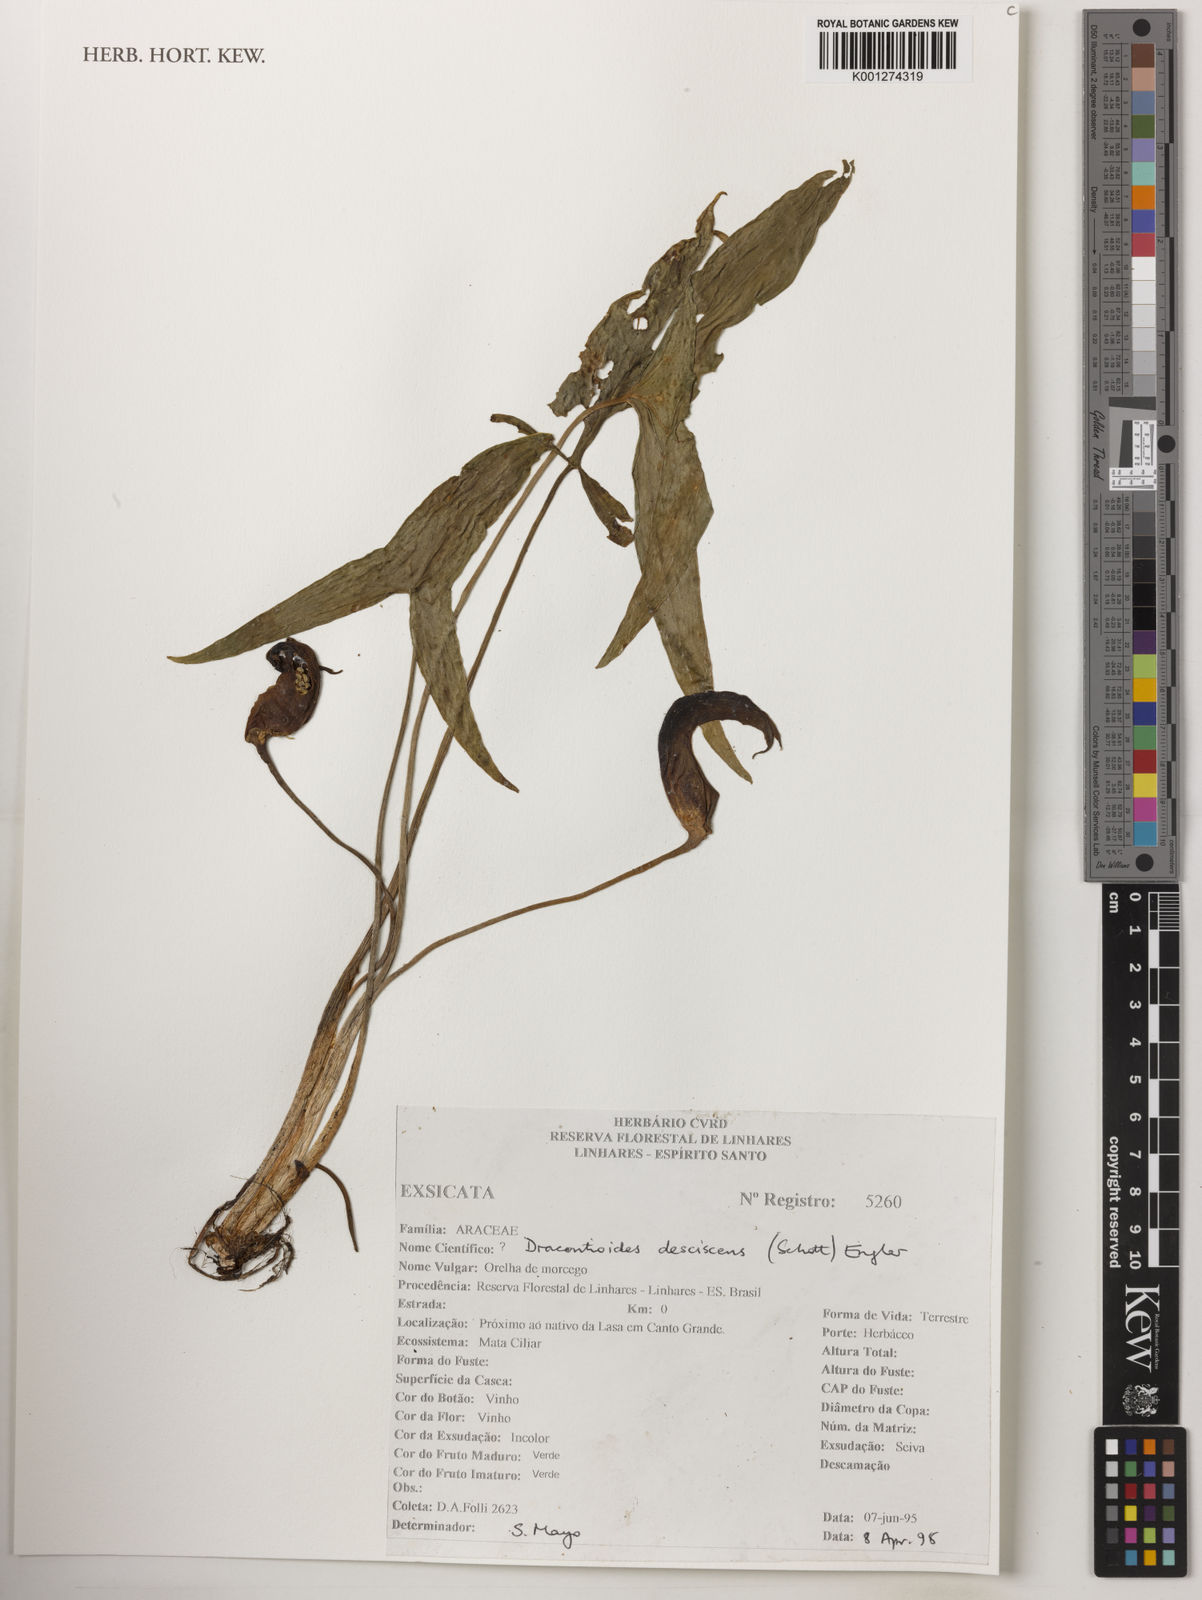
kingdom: Plantae
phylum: Tracheophyta
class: Liliopsida
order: Alismatales
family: Araceae
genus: Dracontioides
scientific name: Dracontioides
